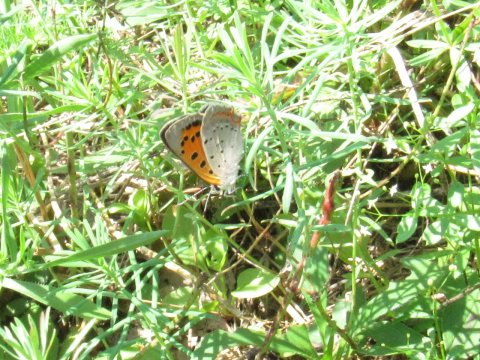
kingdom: Animalia
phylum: Arthropoda
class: Insecta
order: Lepidoptera
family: Lycaenidae
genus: Lycaena
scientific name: Lycaena phlaeas
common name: American Copper
